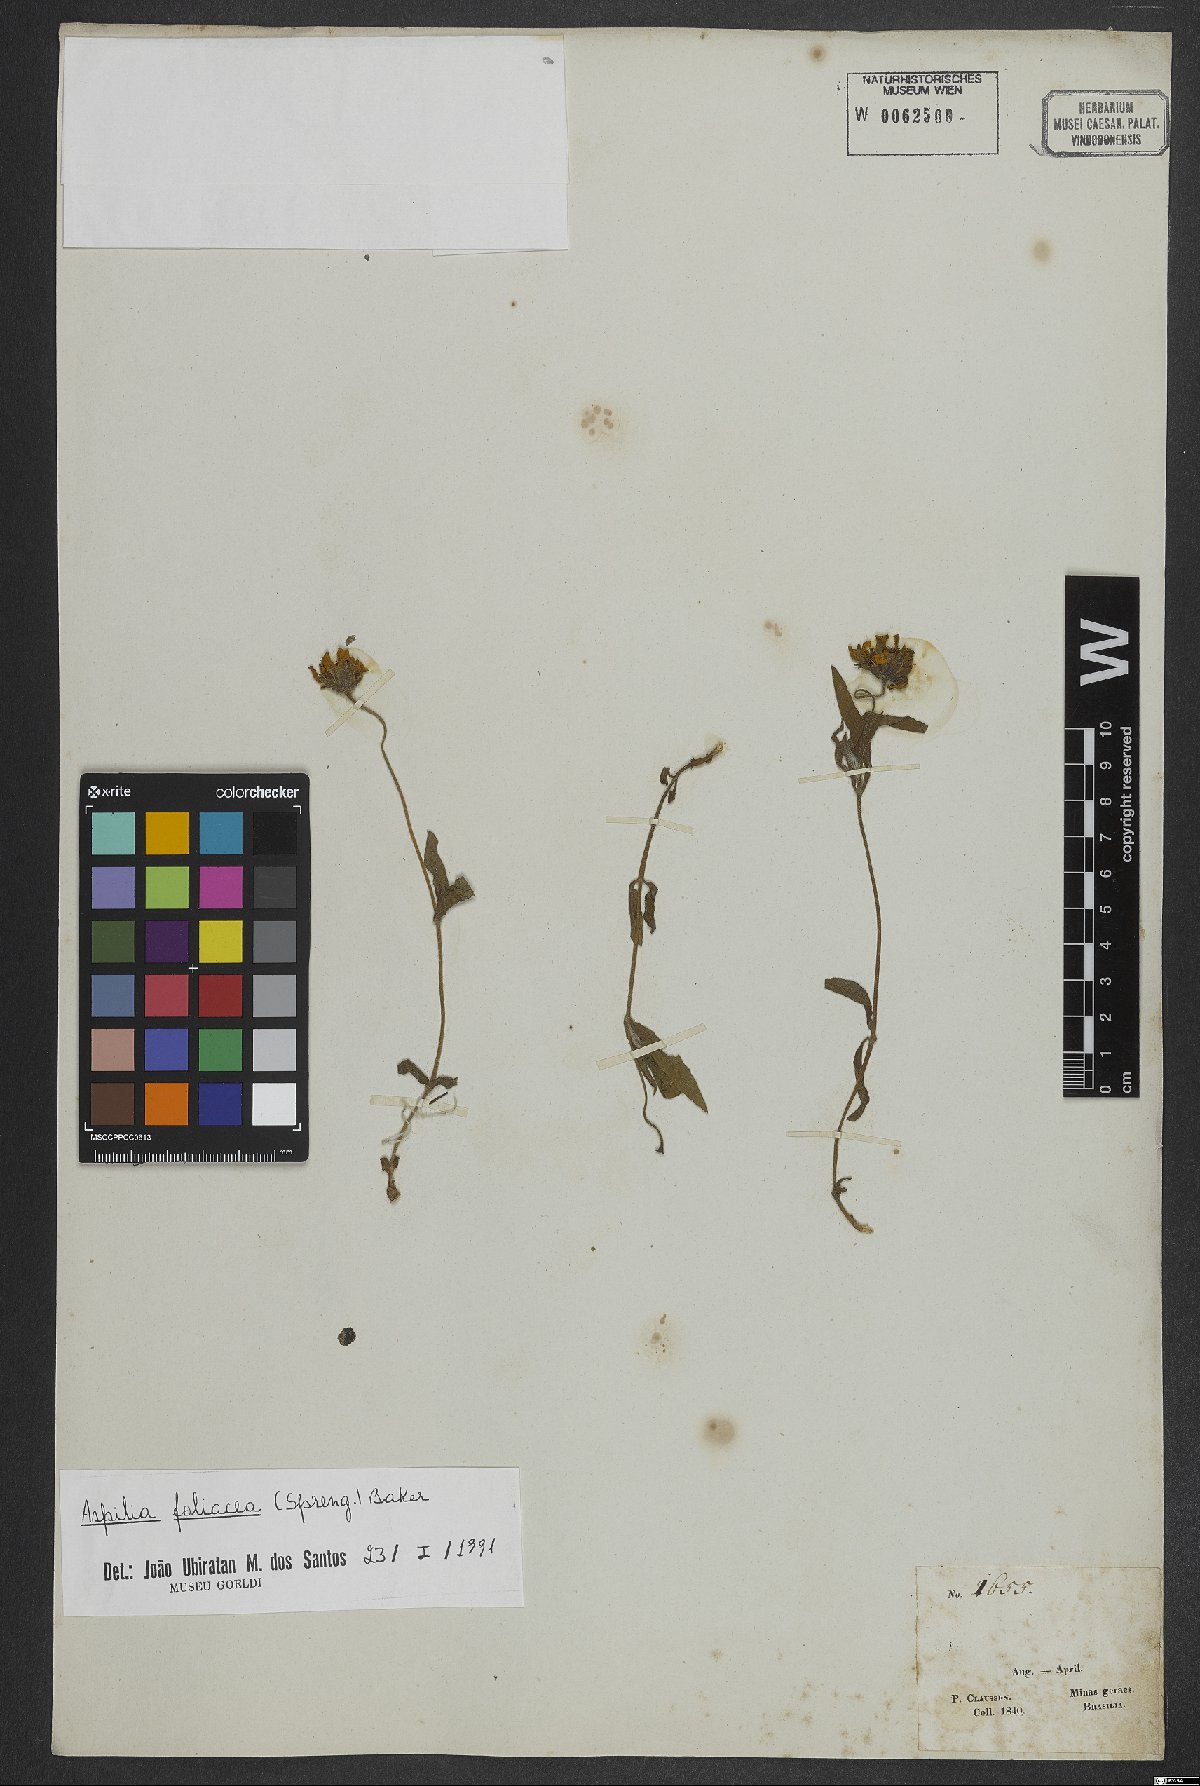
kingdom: Plantae
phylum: Tracheophyta
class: Magnoliopsida
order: Asterales
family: Asteraceae
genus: Aspilia
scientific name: Aspilia foliosa
